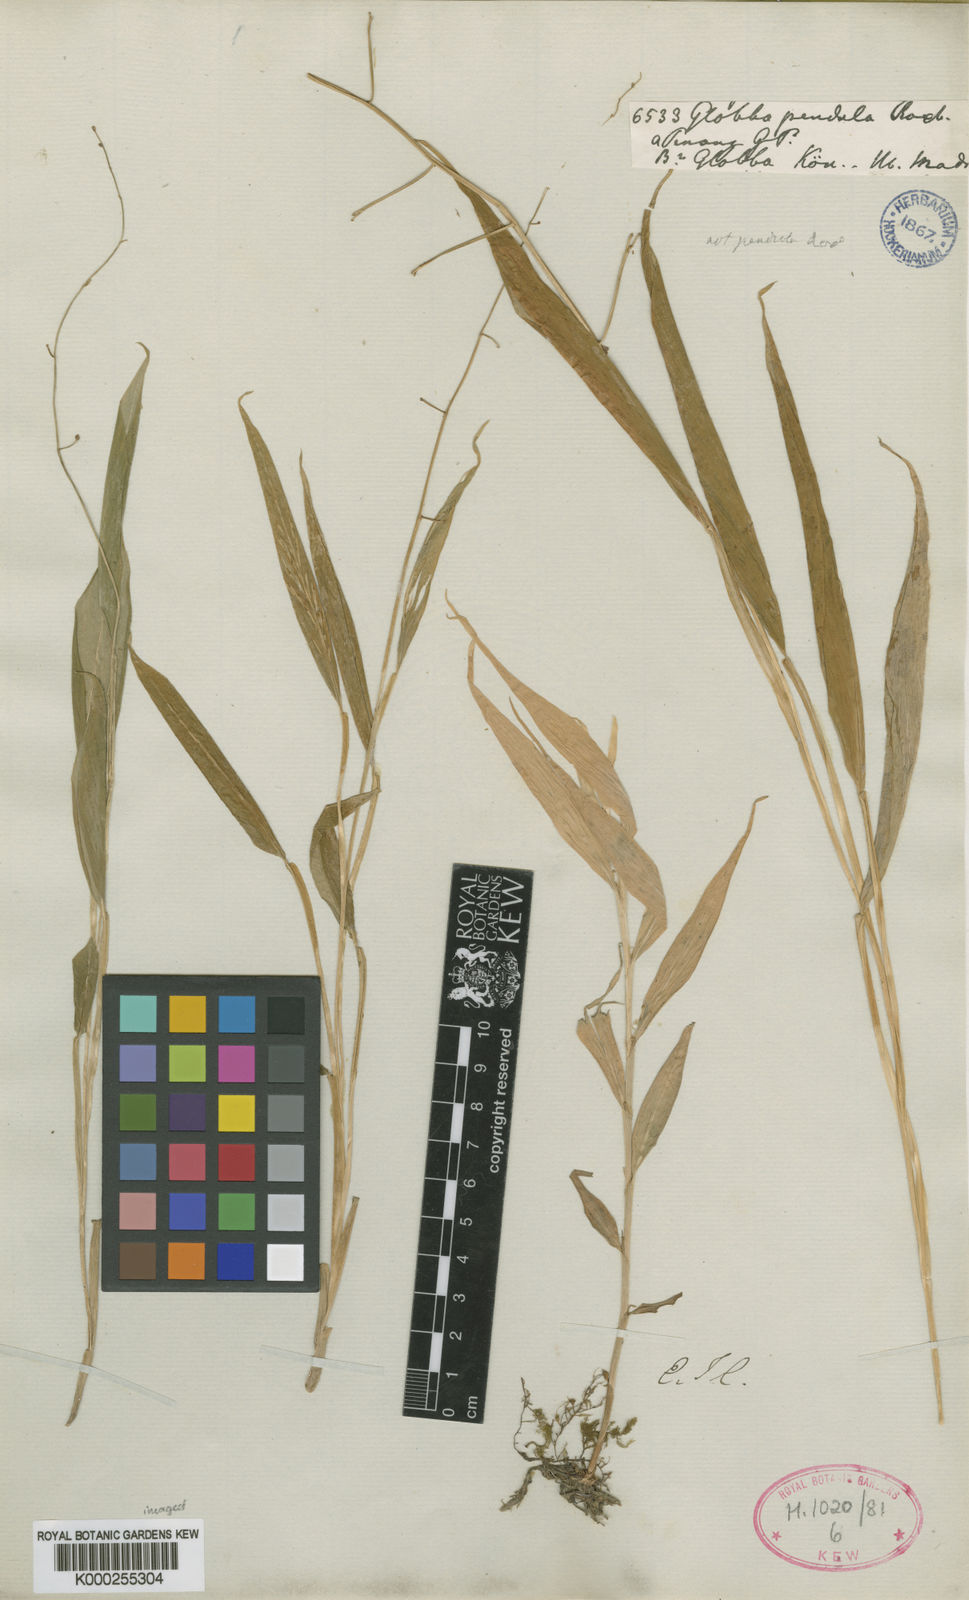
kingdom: Plantae
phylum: Tracheophyta
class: Liliopsida
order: Zingiberales
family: Zingiberaceae
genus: Globba
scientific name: Globba pendula
